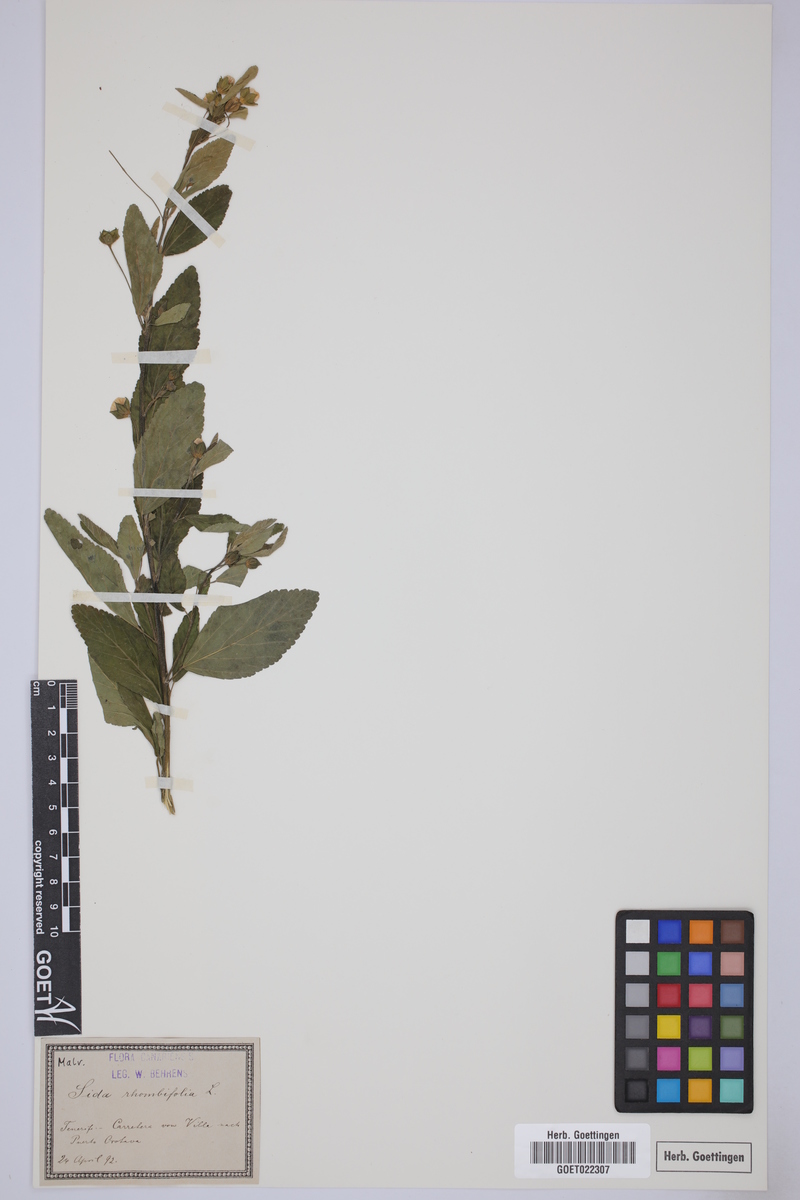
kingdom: Plantae
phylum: Tracheophyta
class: Magnoliopsida
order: Malvales
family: Malvaceae
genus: Sida
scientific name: Sida rhombifolia
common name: Queensland-hemp
